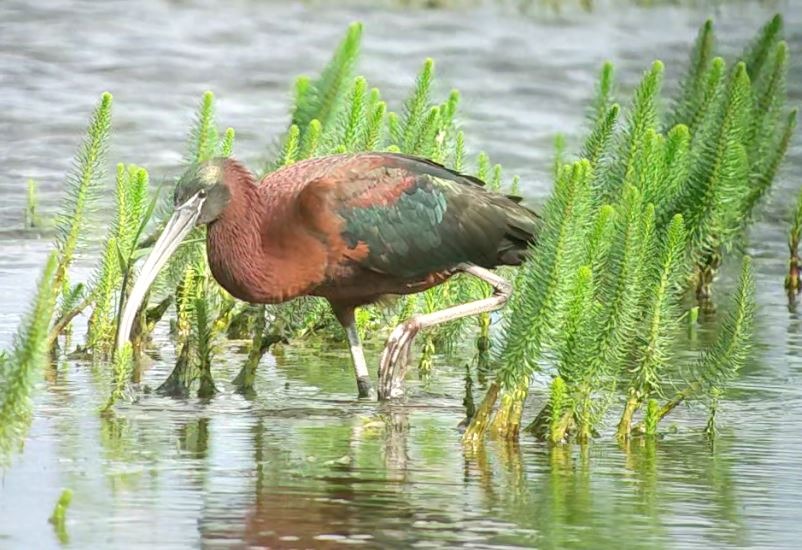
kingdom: Animalia
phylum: Chordata
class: Aves
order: Pelecaniformes
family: Threskiornithidae
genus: Plegadis
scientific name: Plegadis falcinellus
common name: Sort ibis
